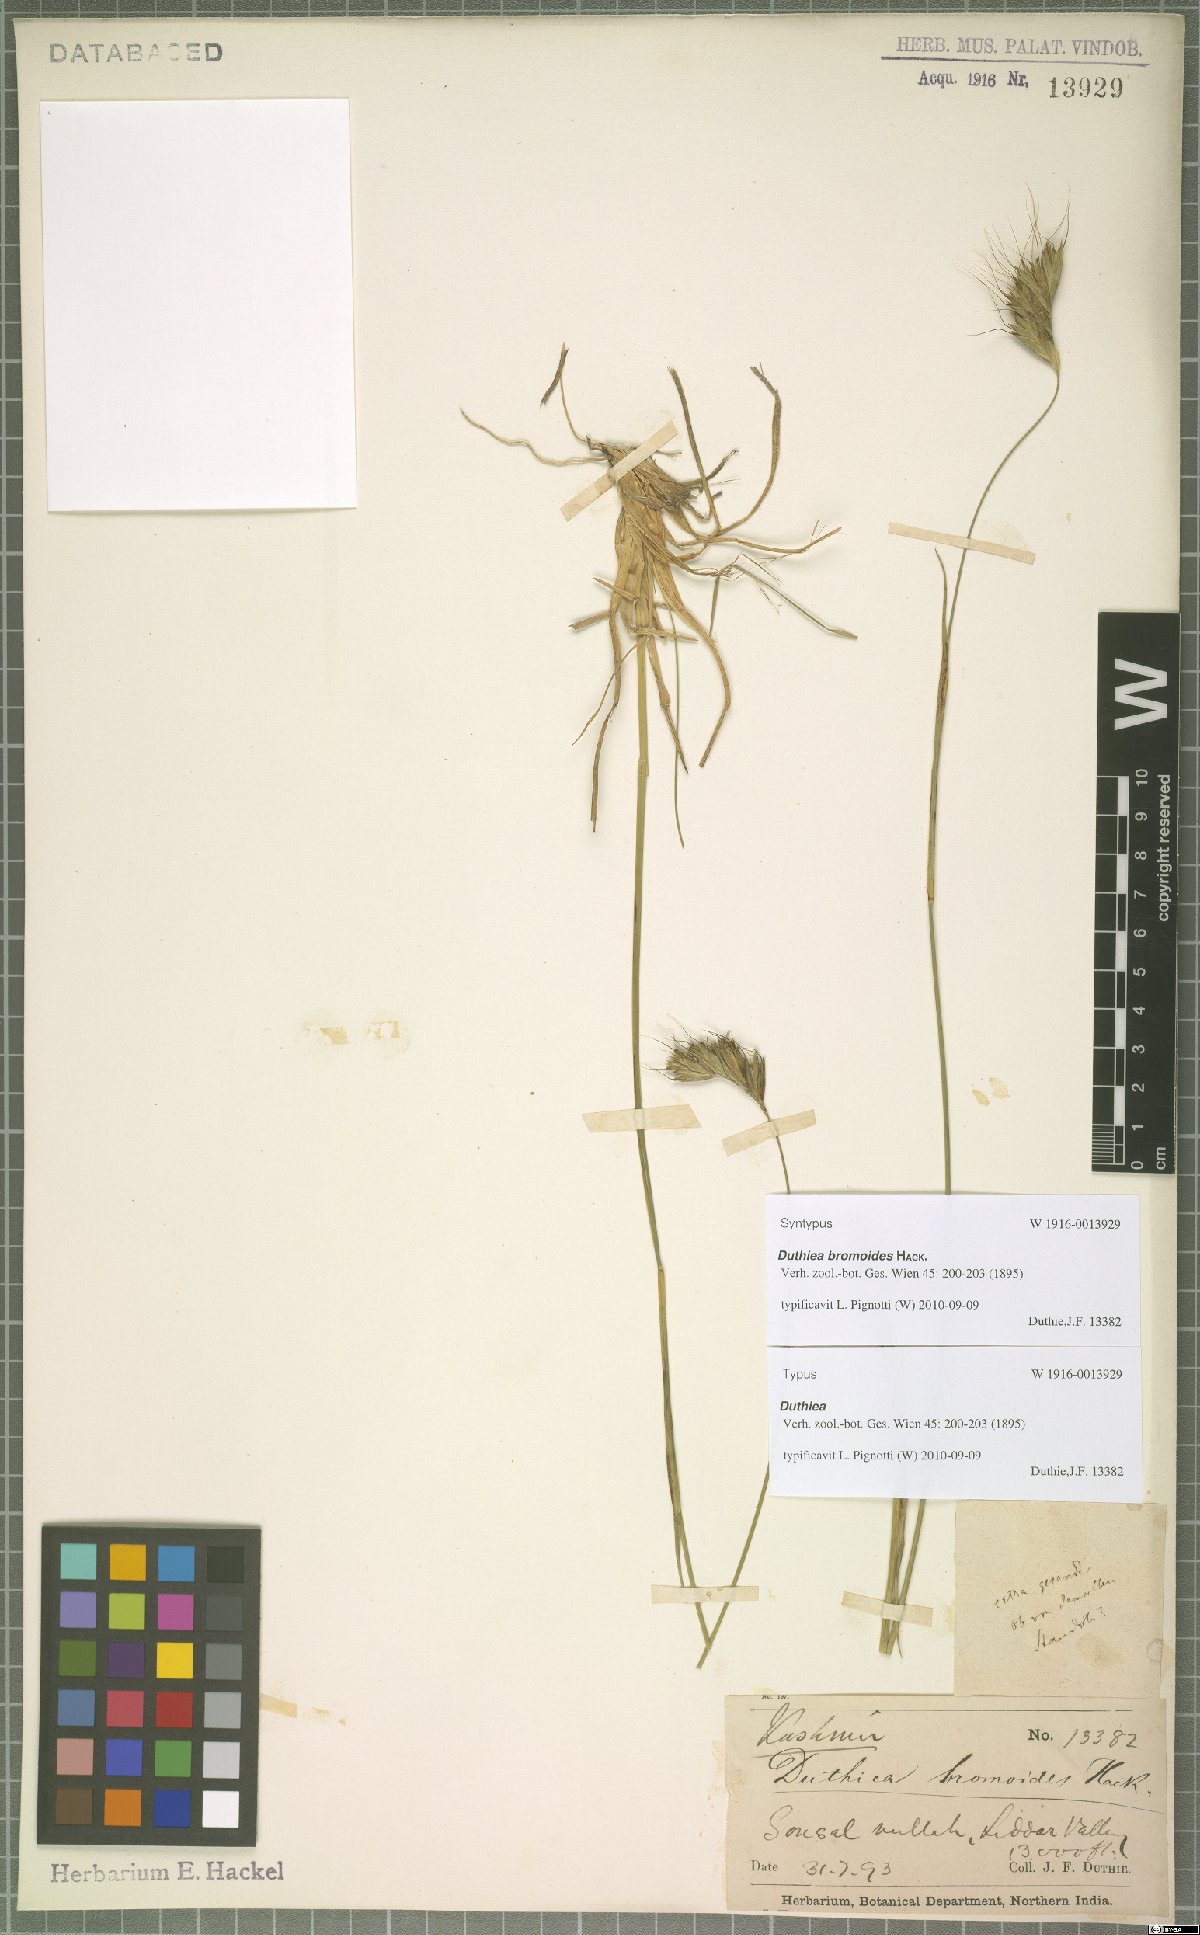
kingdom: Plantae
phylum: Tracheophyta
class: Liliopsida
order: Poales
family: Poaceae
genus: Duthiea
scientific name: Duthiea bromoides
